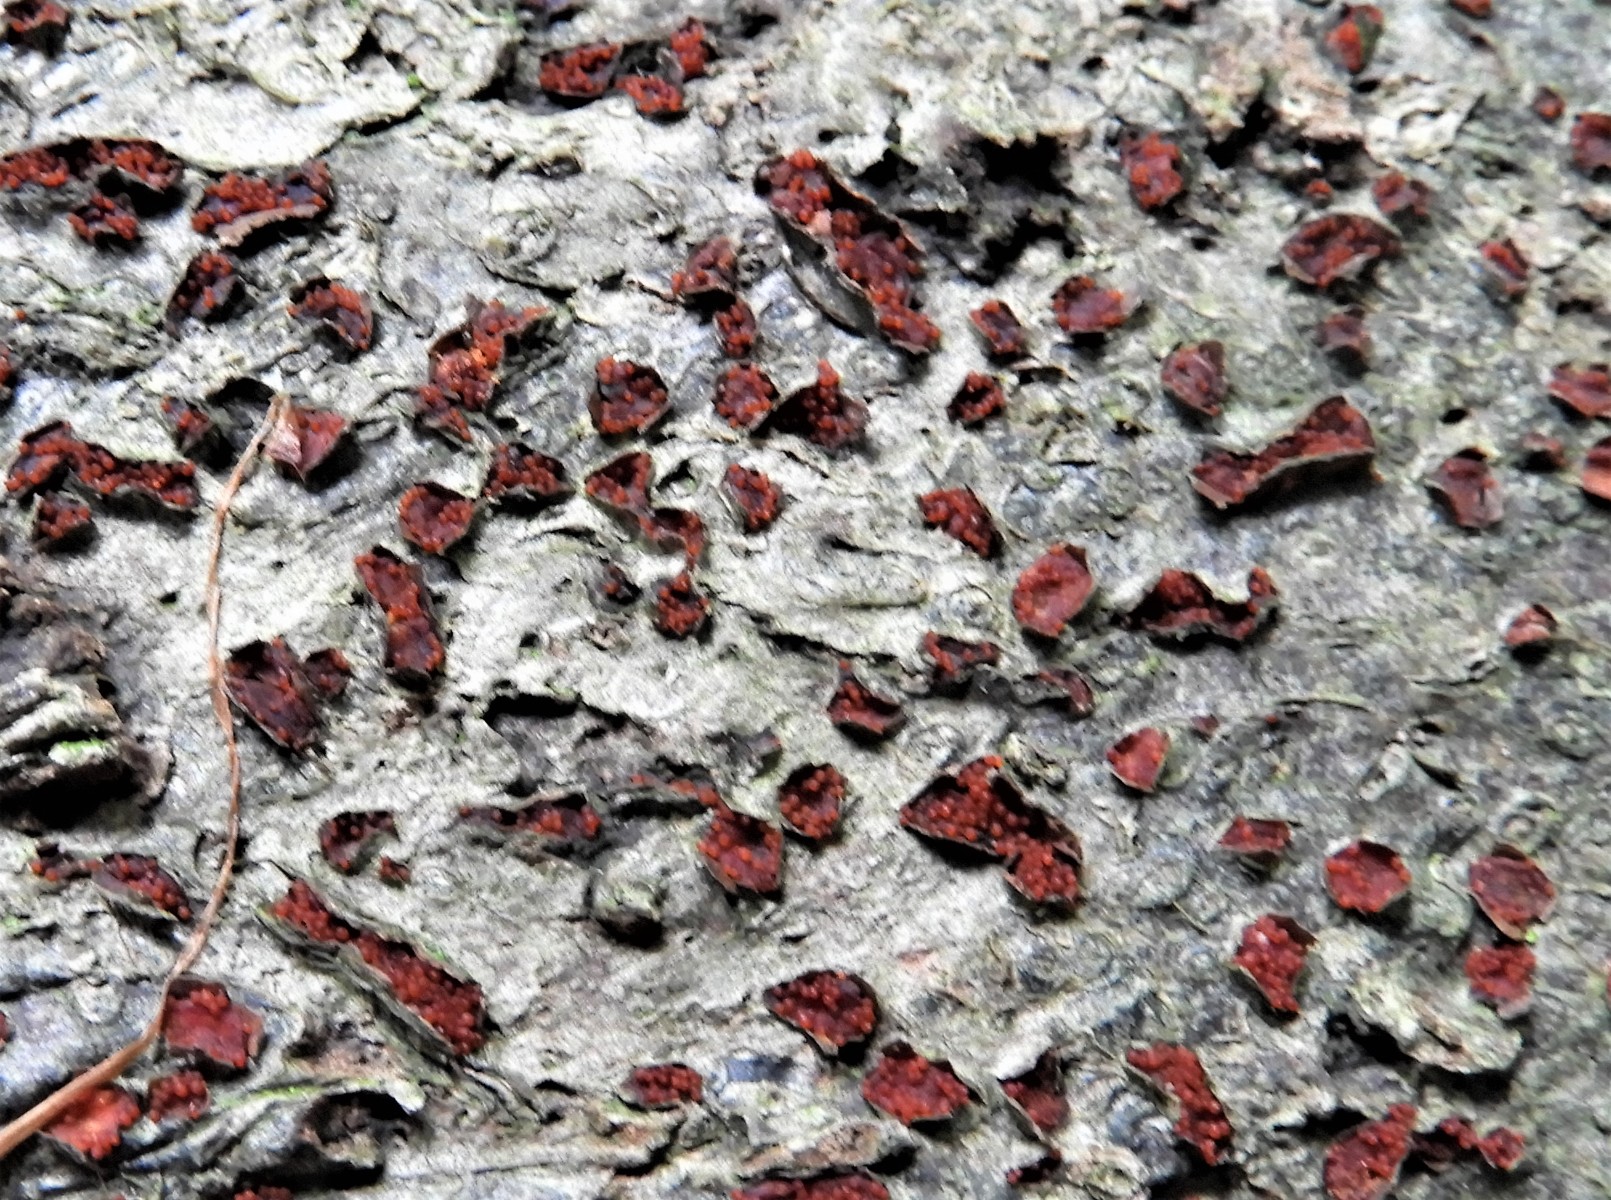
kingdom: Fungi
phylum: Ascomycota
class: Sordariomycetes
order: Hypocreales
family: Nectriaceae
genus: Neonectria
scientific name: Neonectria coccinea
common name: bøgebark-cinnobersvamp
